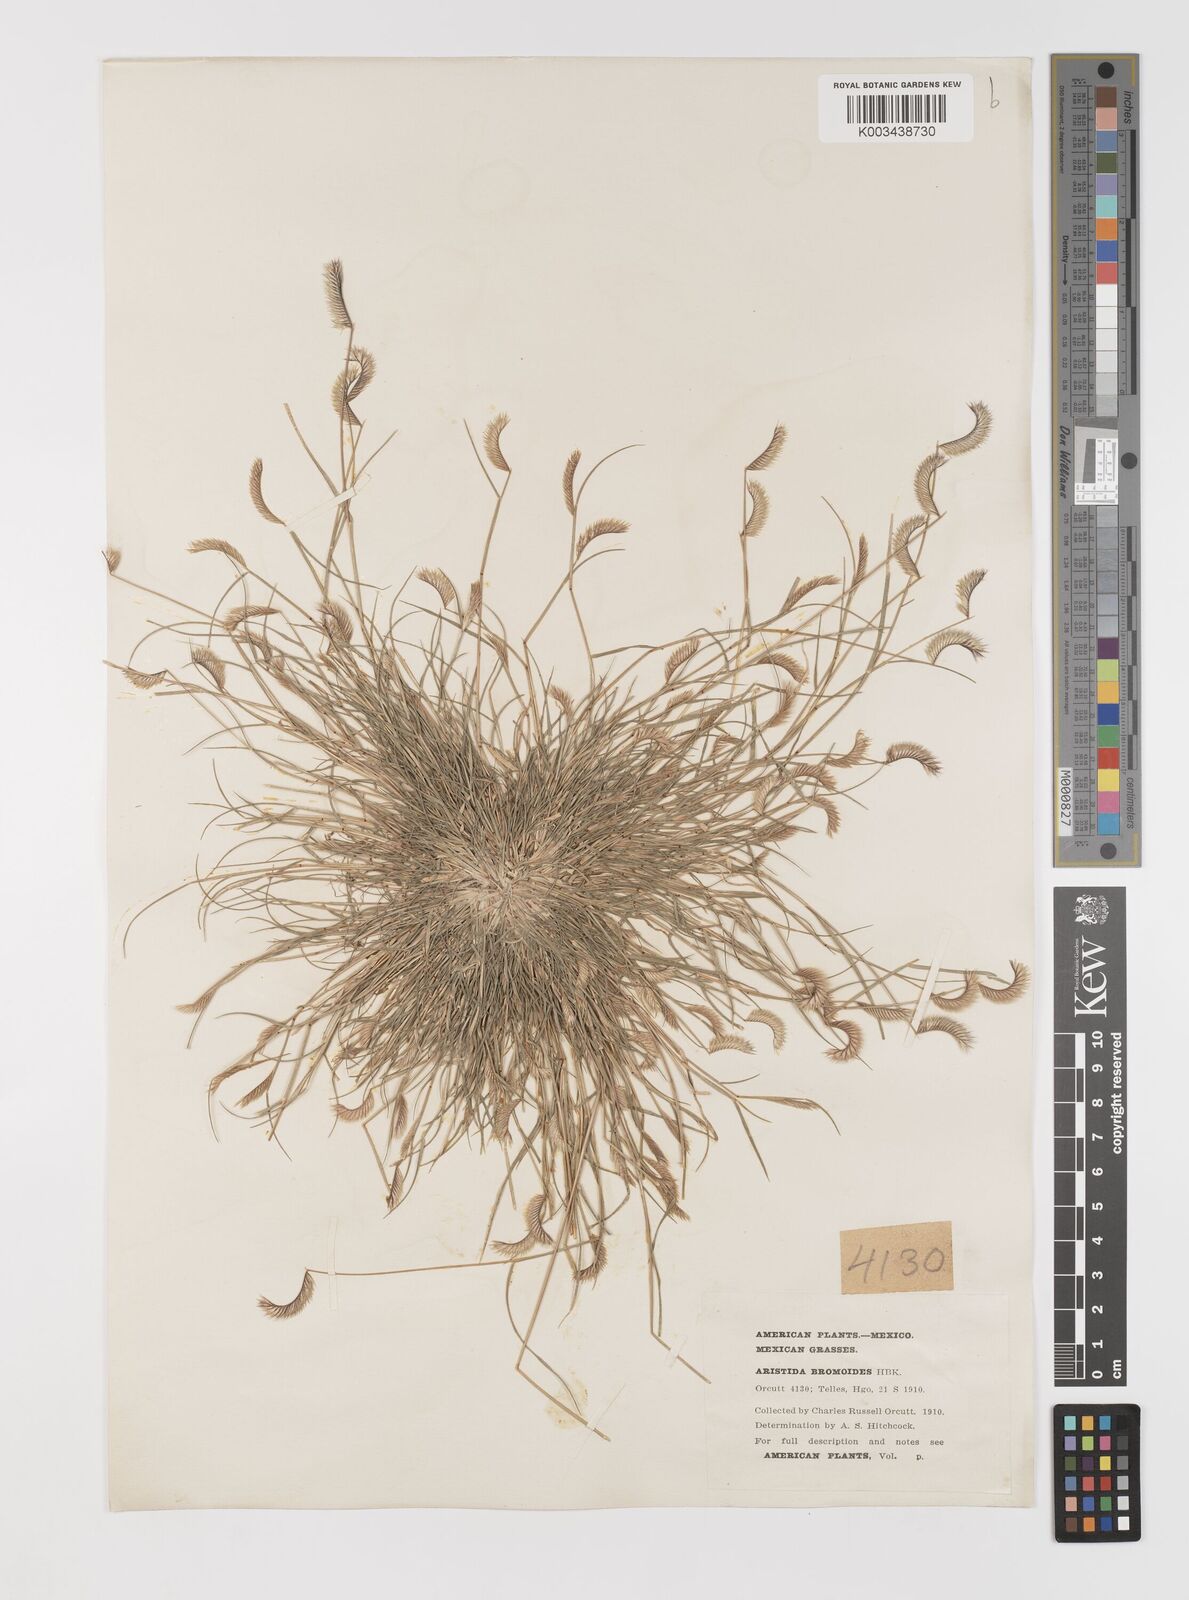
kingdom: Plantae
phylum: Tracheophyta
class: Liliopsida
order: Poales
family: Poaceae
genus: Bouteloua
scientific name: Bouteloua simplex
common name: Mat grama
